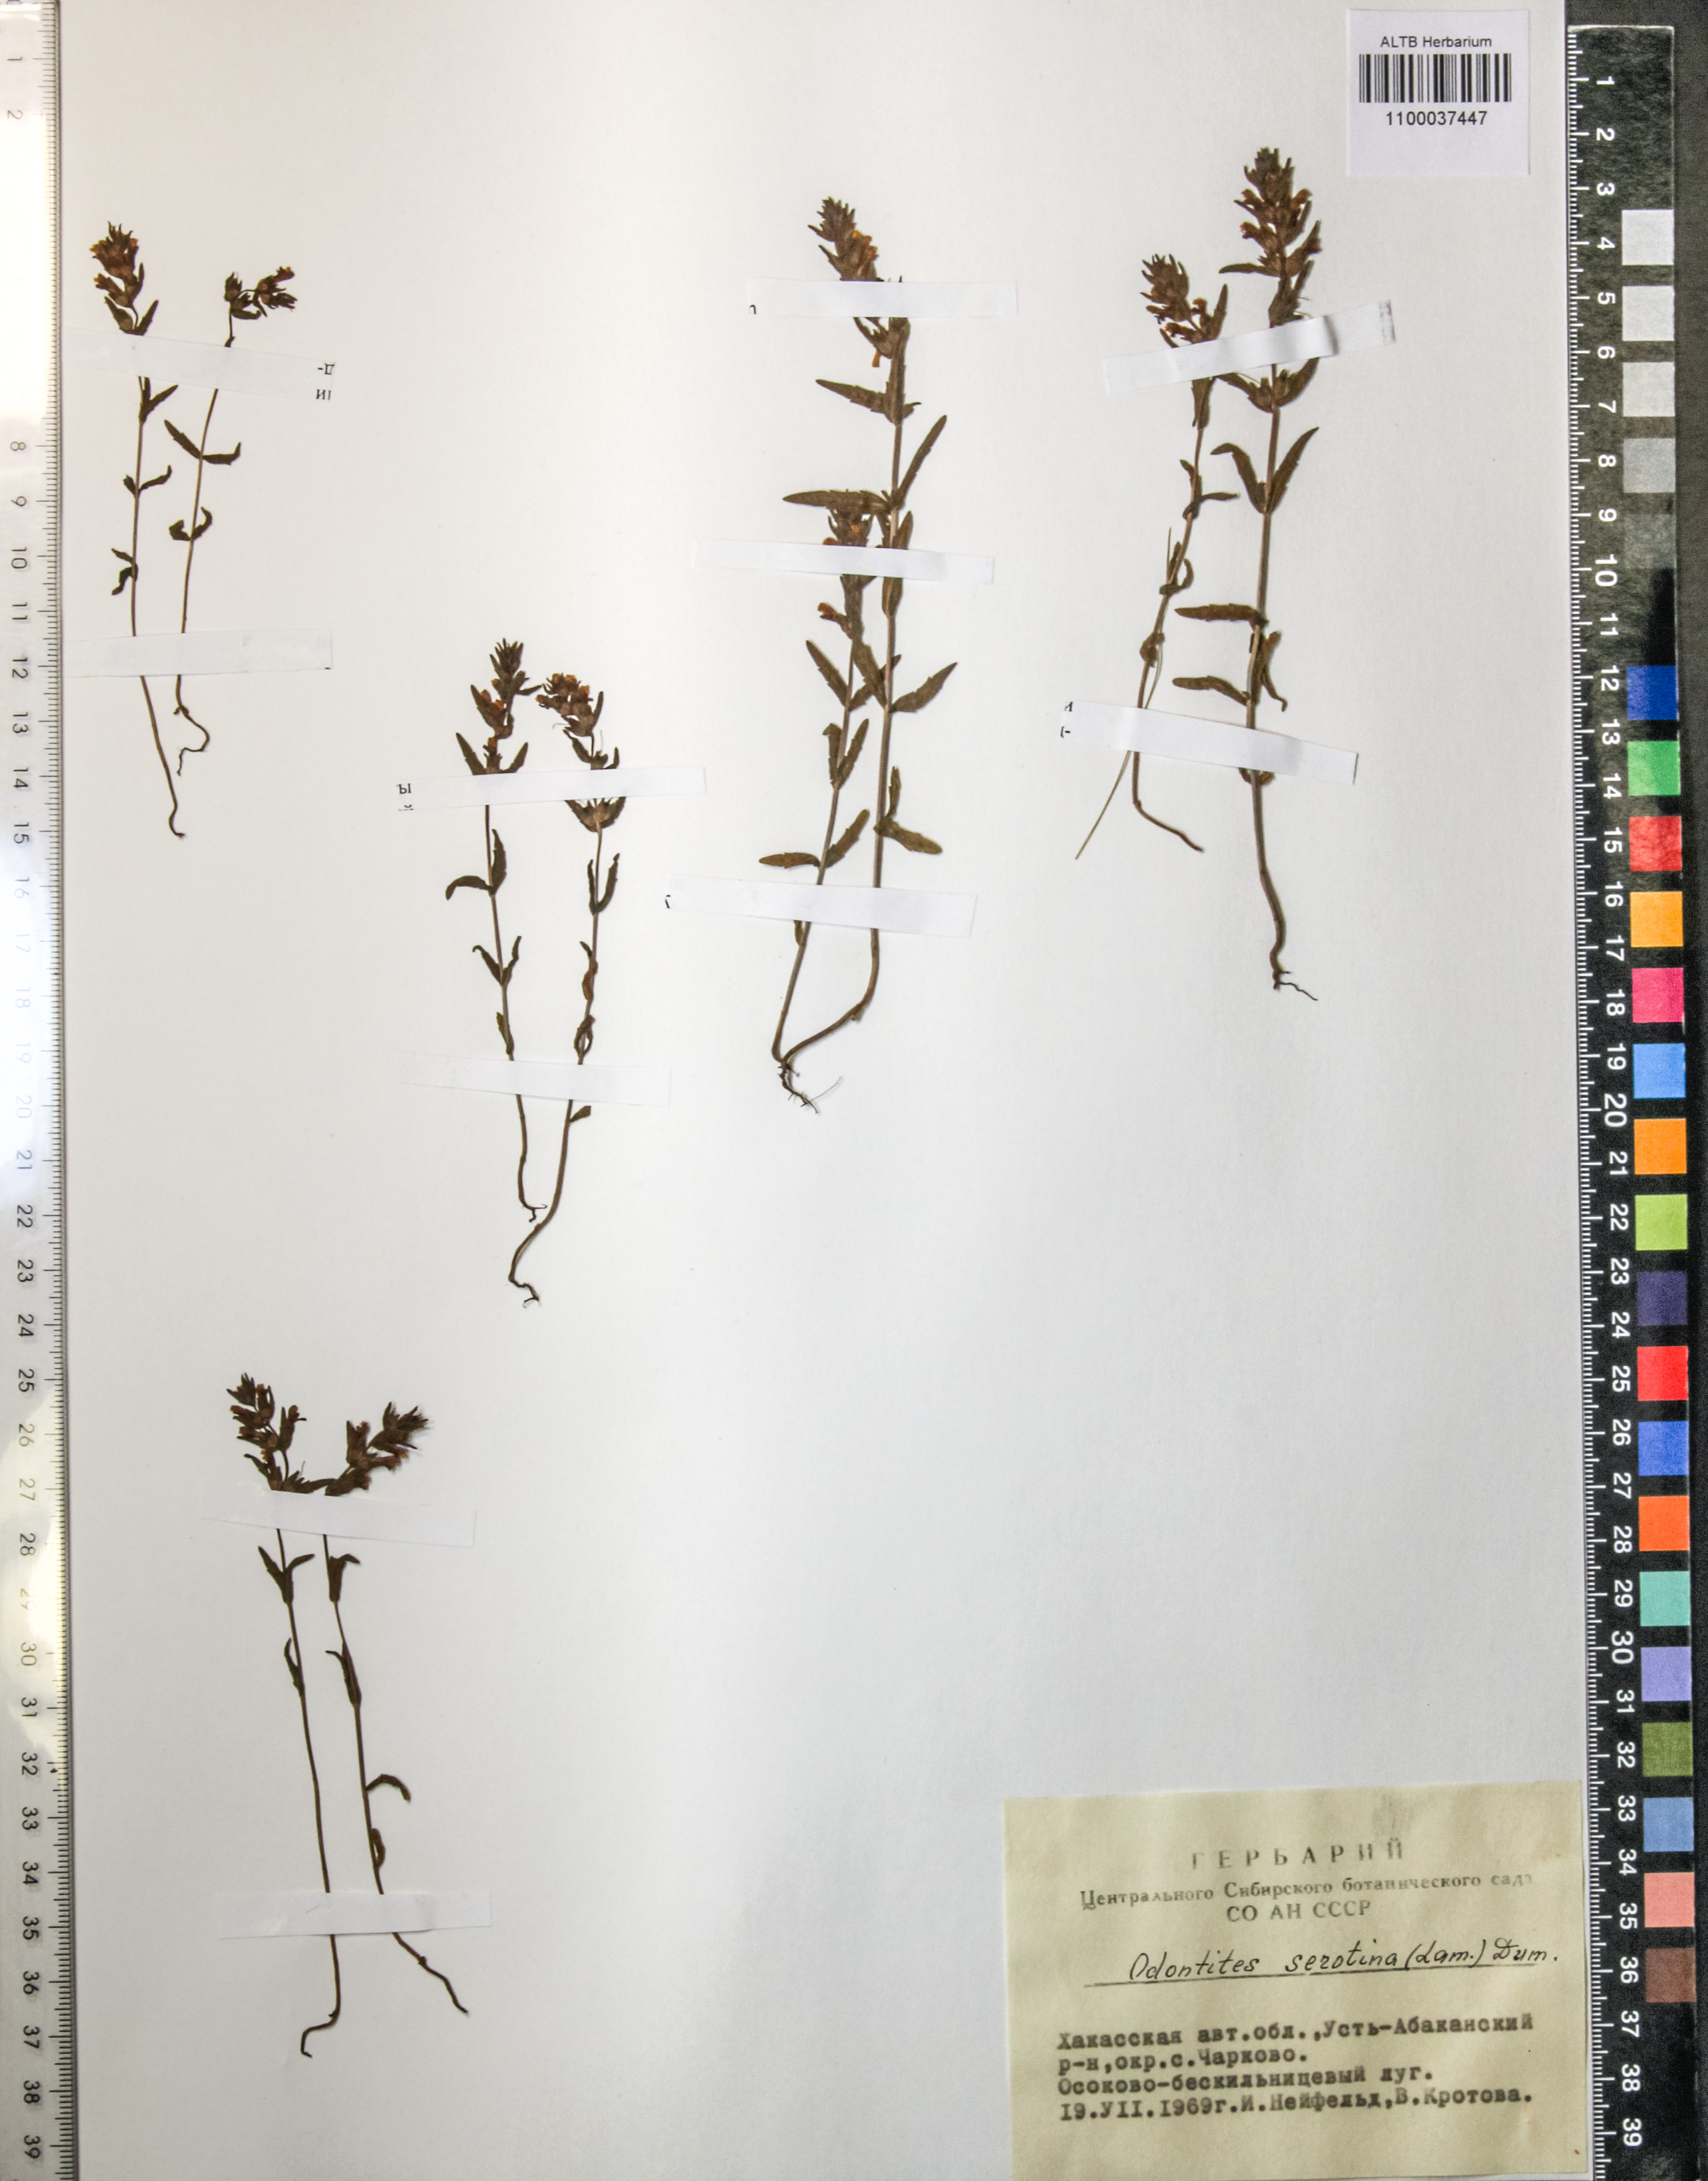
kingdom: Plantae
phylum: Tracheophyta
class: Magnoliopsida
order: Lamiales
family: Orobanchaceae
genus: Odontites
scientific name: Odontites vulgaris
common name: Broomrape
